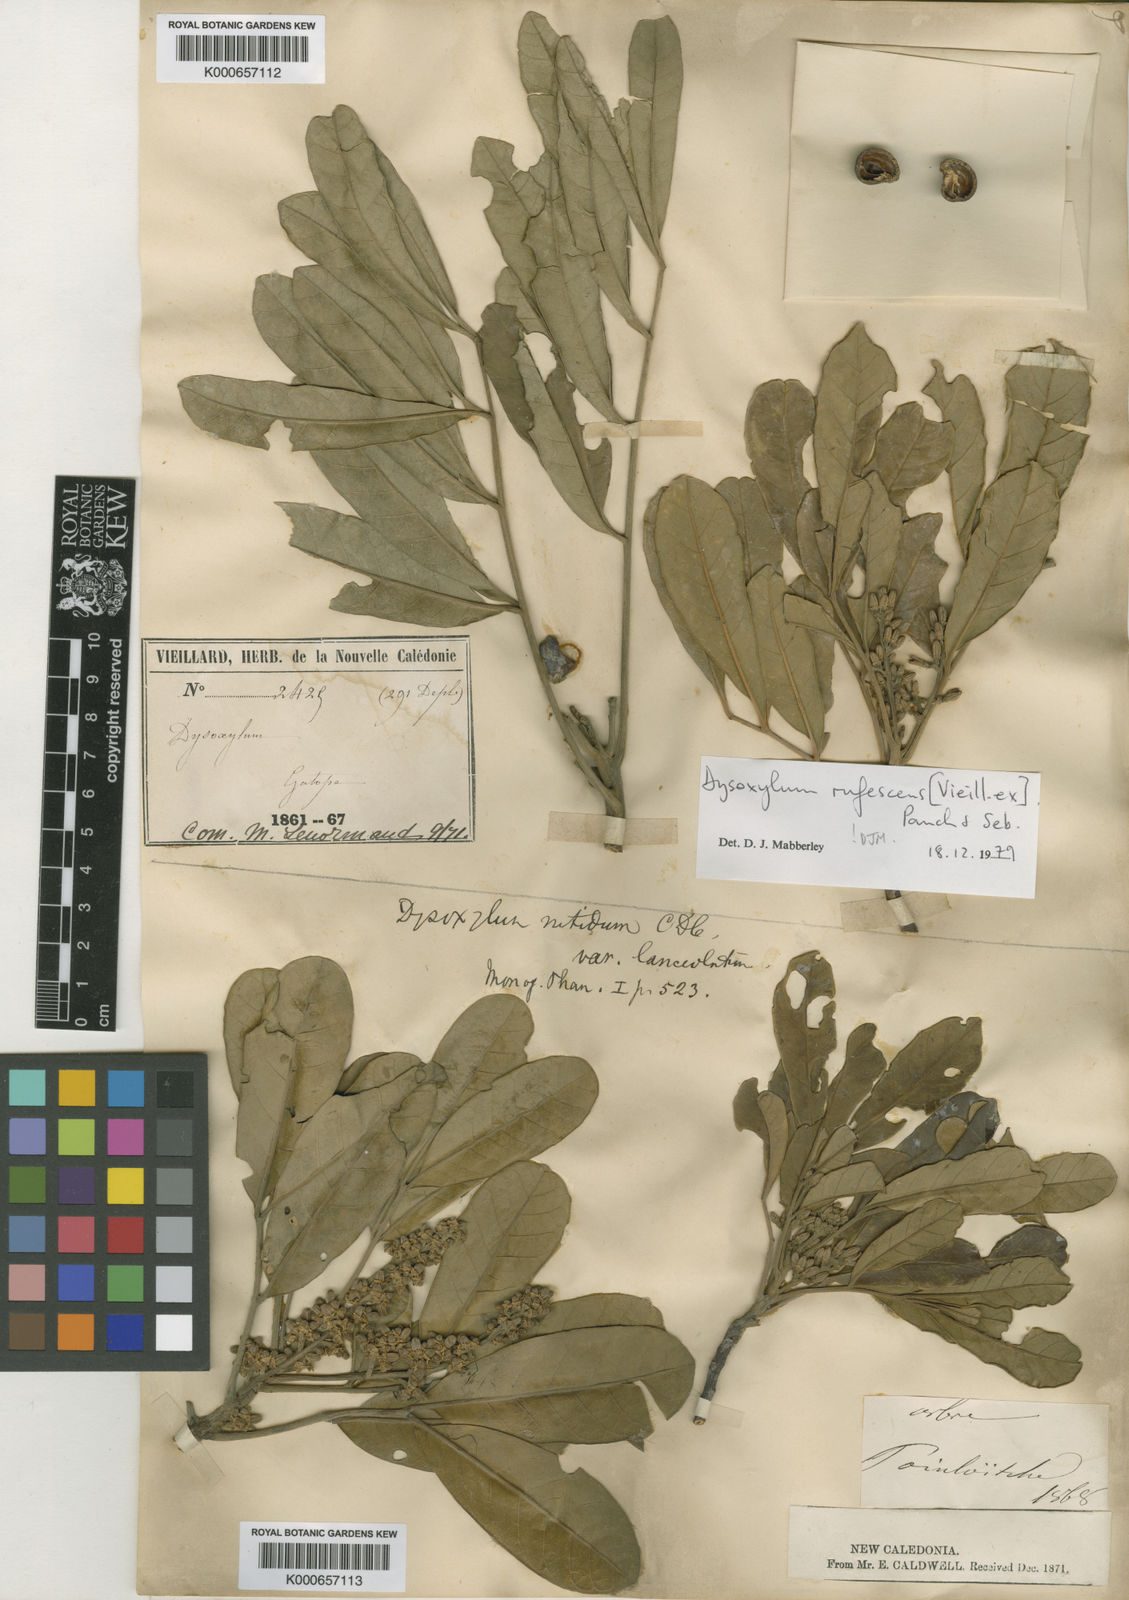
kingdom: Plantae
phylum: Tracheophyta
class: Magnoliopsida
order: Sapindales
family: Meliaceae
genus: Didymocheton
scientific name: Didymocheton rufescens
